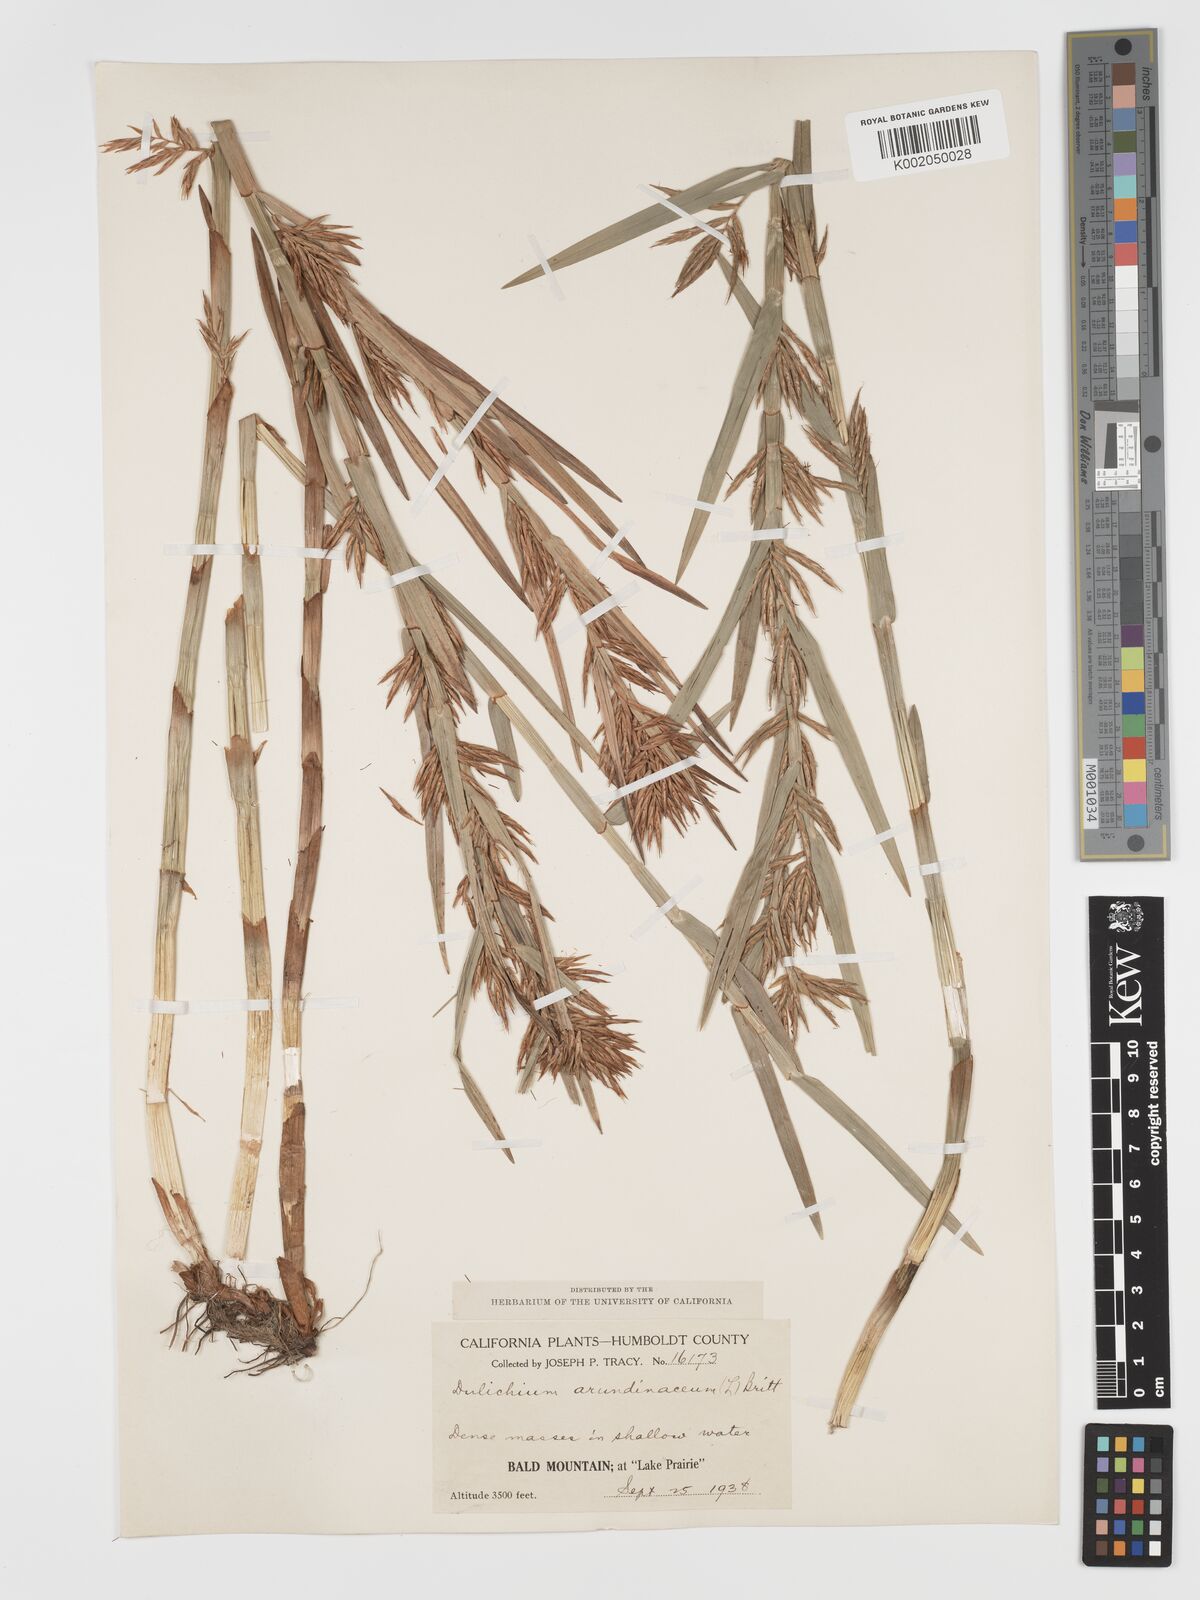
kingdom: Plantae
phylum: Tracheophyta
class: Liliopsida
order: Poales
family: Cyperaceae
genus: Dulichium
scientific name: Dulichium arundinaceum
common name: Three-way sedge
